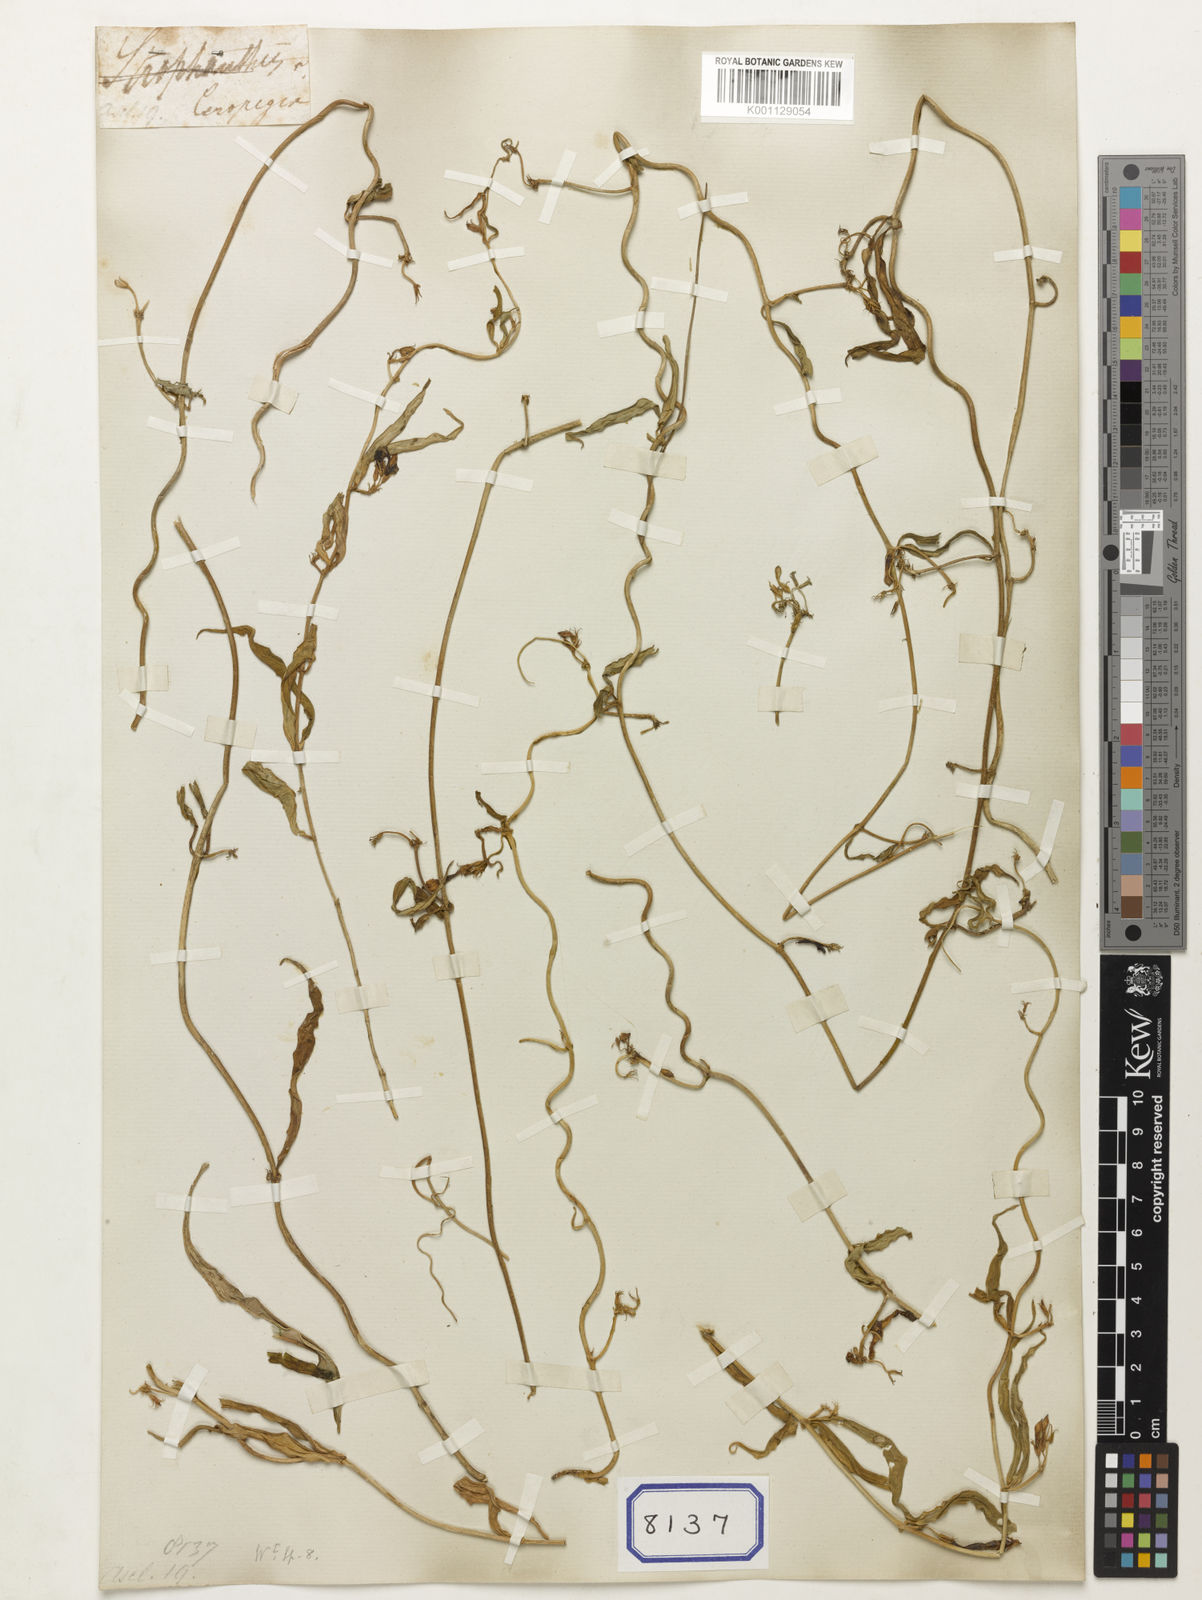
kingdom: Plantae
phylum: Tracheophyta
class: Magnoliopsida
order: Gentianales
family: Apocynaceae
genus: Ceropegia
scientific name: Ceropegia angustifolia
